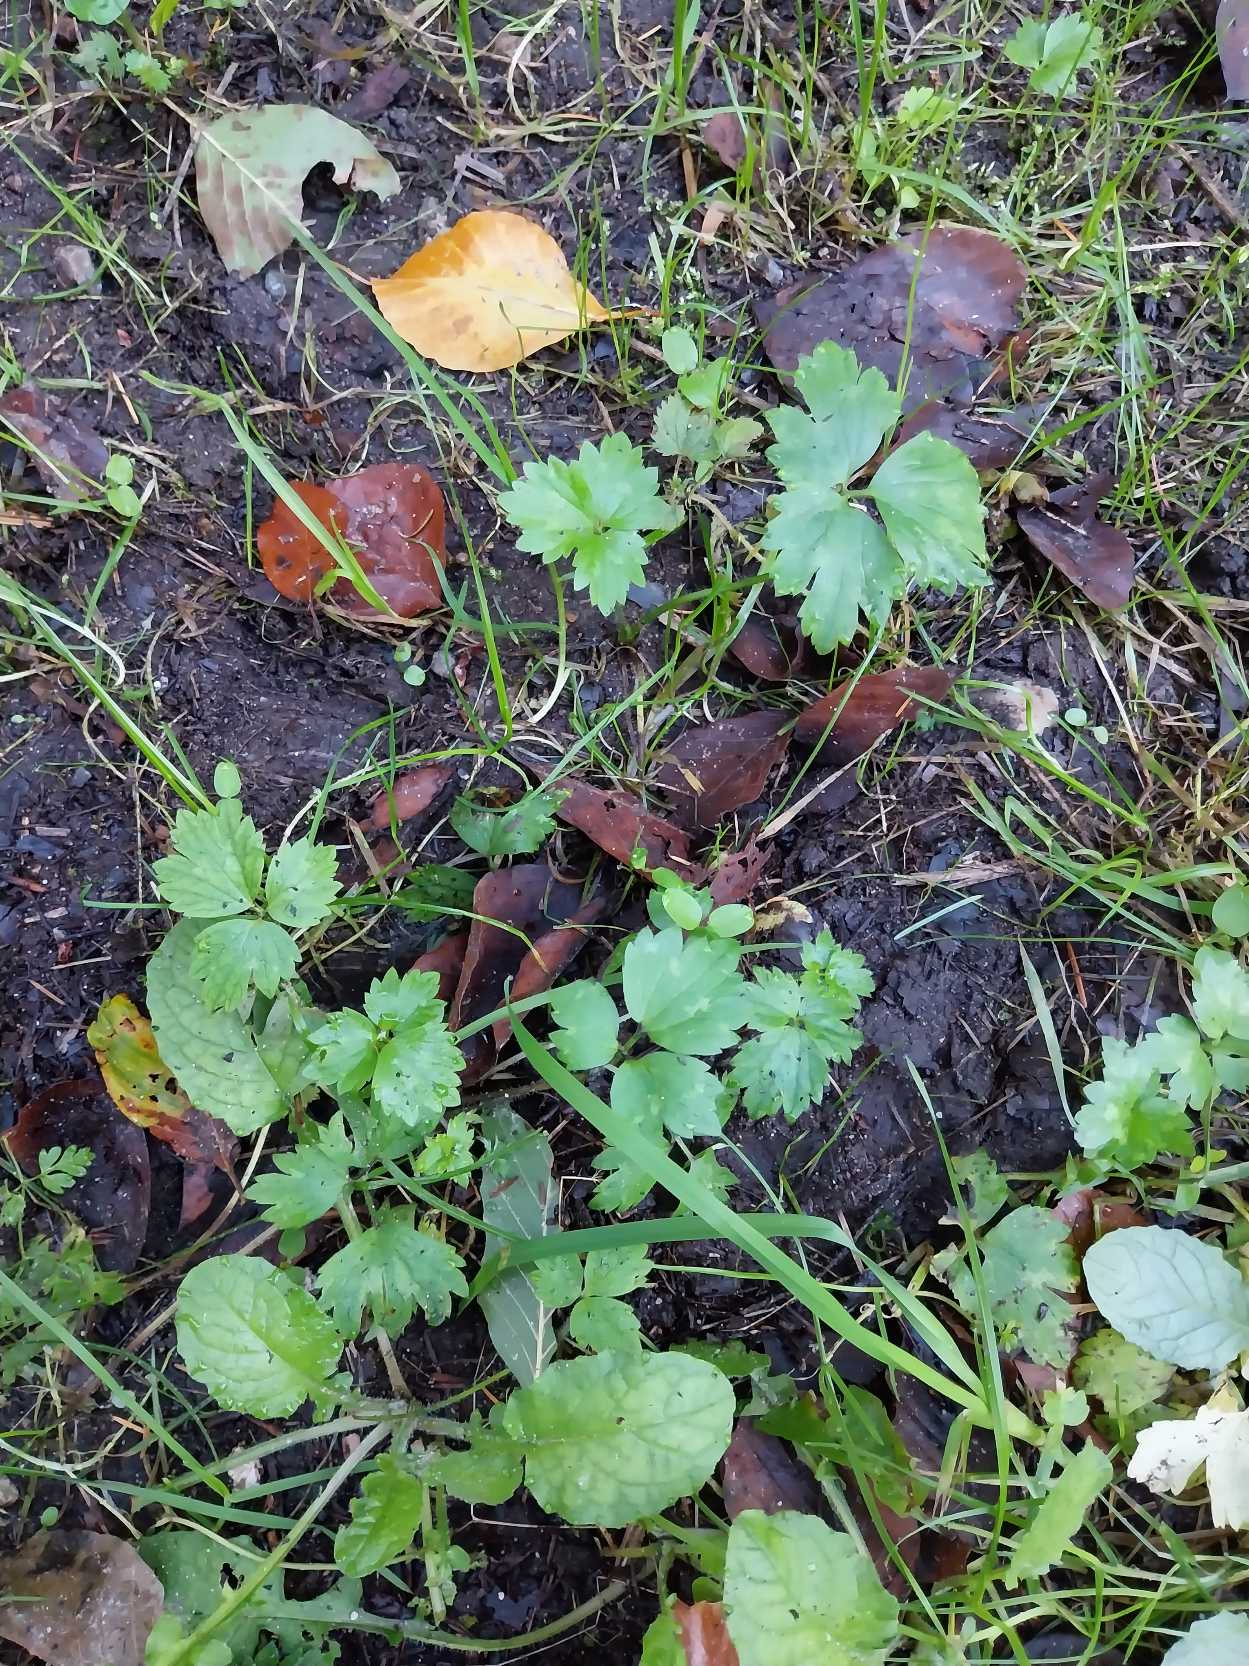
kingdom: Plantae
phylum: Tracheophyta
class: Magnoliopsida
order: Ranunculales
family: Ranunculaceae
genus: Ranunculus
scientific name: Ranunculus repens
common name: Lav ranunkel
